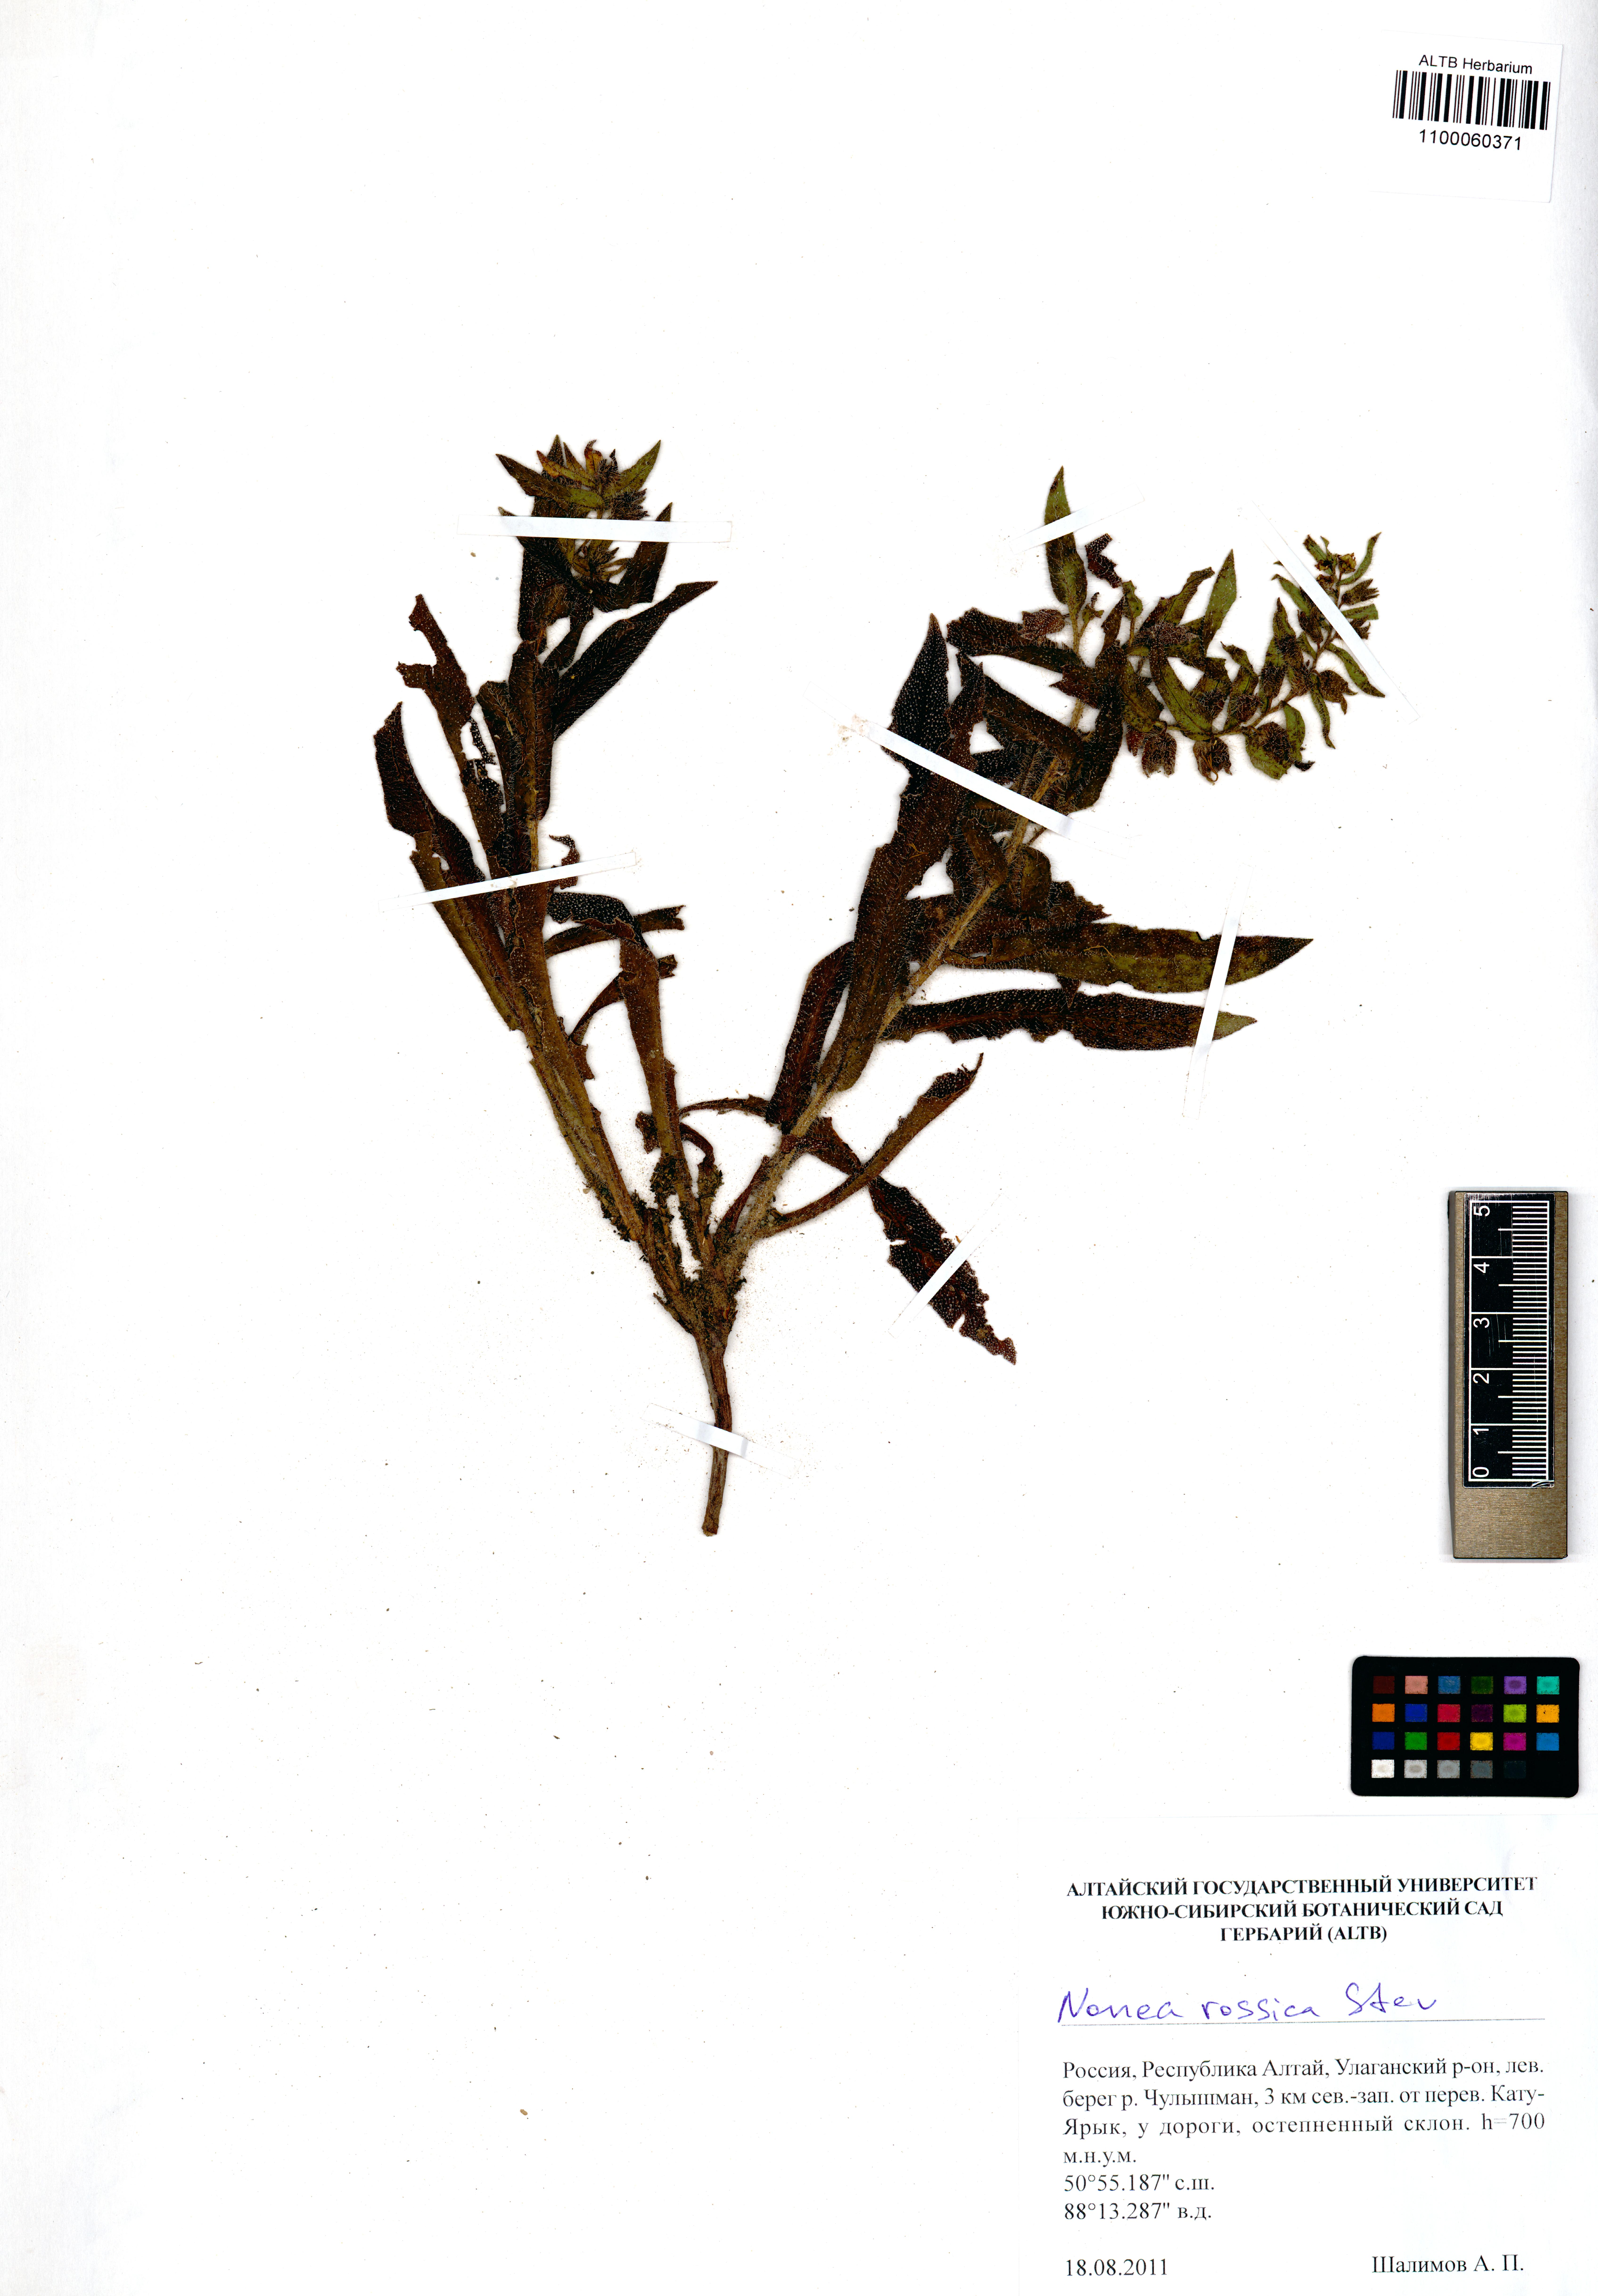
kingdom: Plantae
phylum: Tracheophyta
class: Magnoliopsida
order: Boraginales
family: Boraginaceae
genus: Nonea
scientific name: Nonea pulla
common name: Brown nonea
